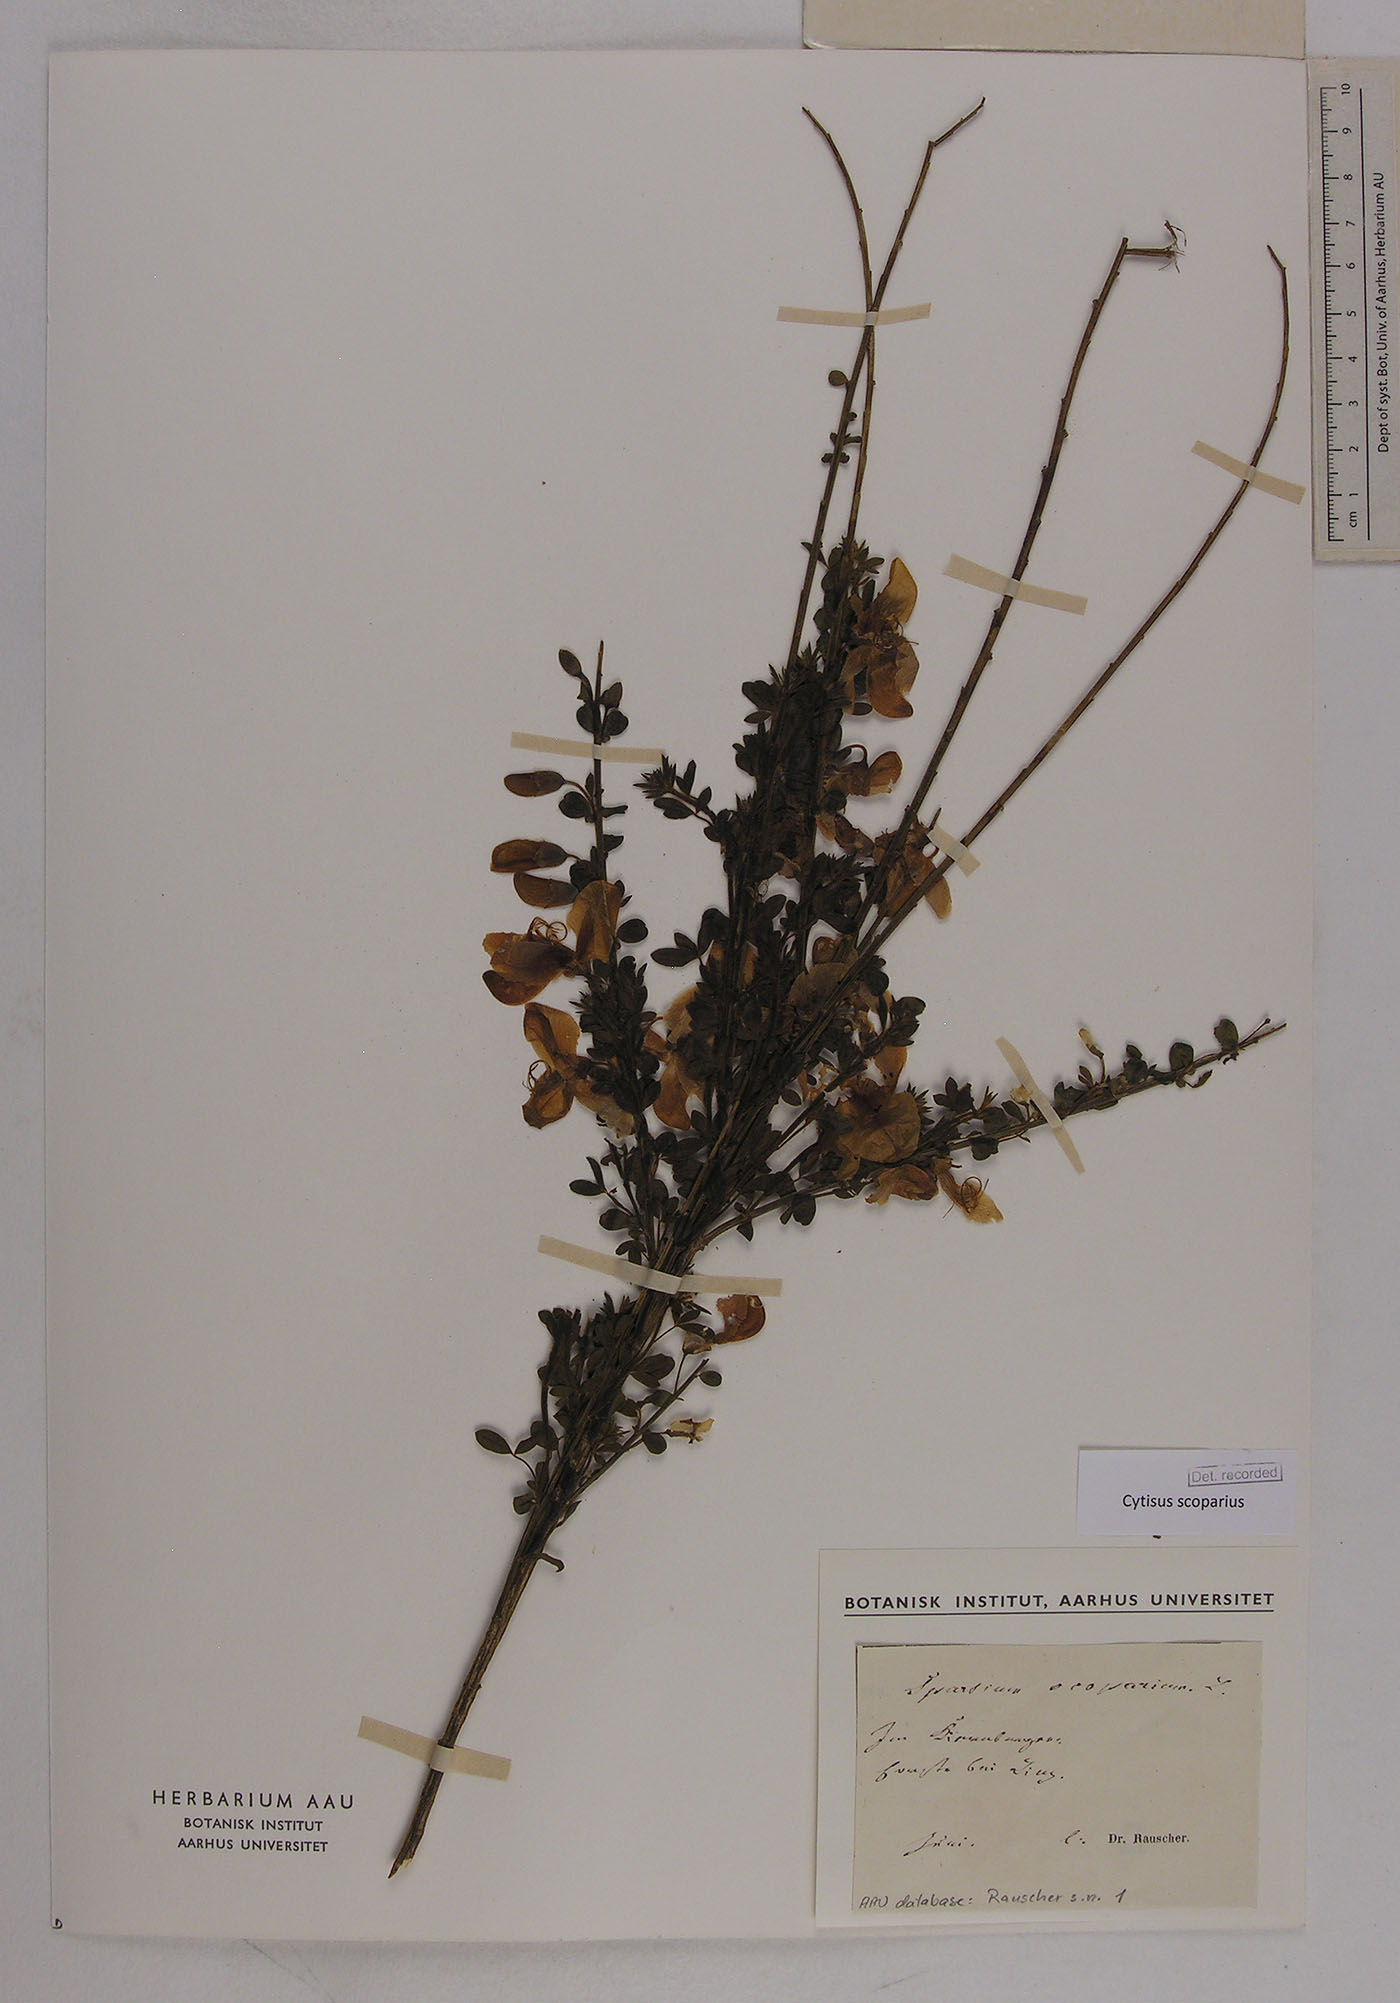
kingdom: Plantae
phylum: Tracheophyta
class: Magnoliopsida
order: Fabales
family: Fabaceae
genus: Cytisus
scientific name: Cytisus scoparius
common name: Scotch broom
